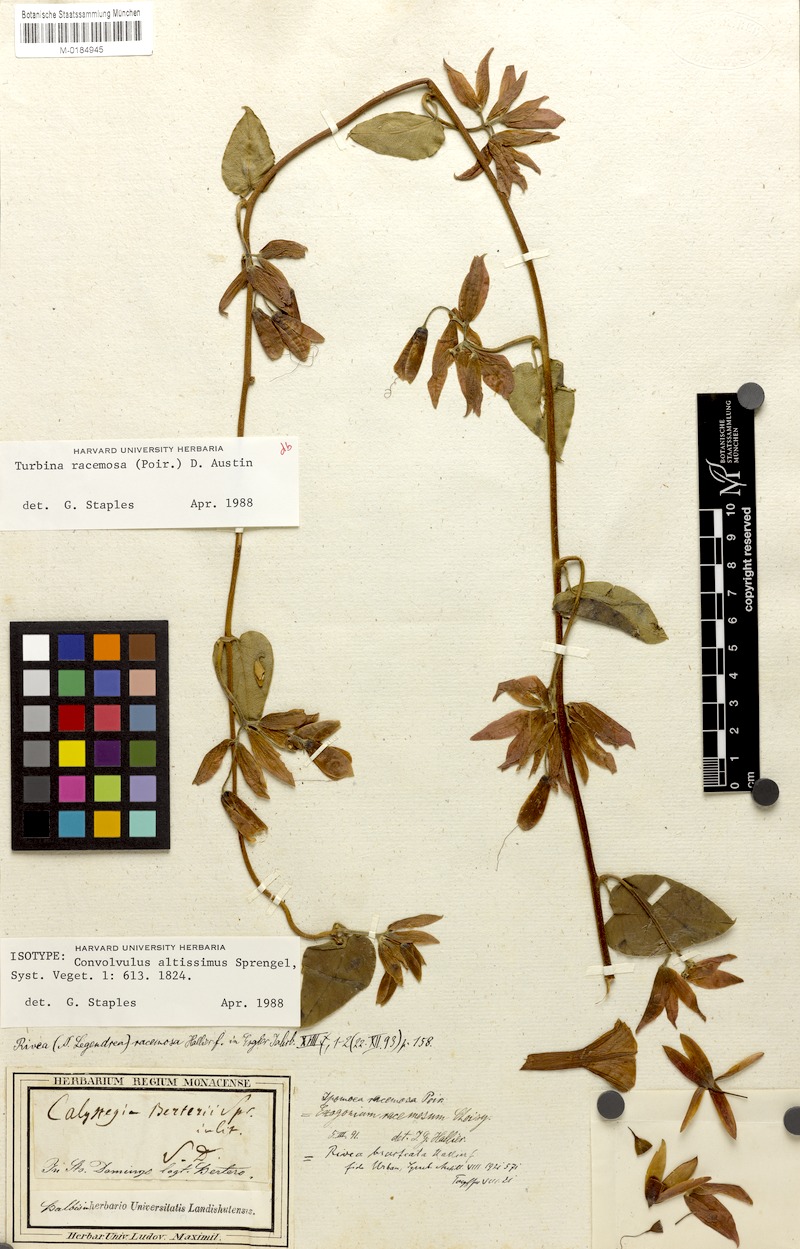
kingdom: Plantae
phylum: Tracheophyta
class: Magnoliopsida
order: Solanales
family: Convolvulaceae
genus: Ipomoea
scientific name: Ipomoea racemosa
